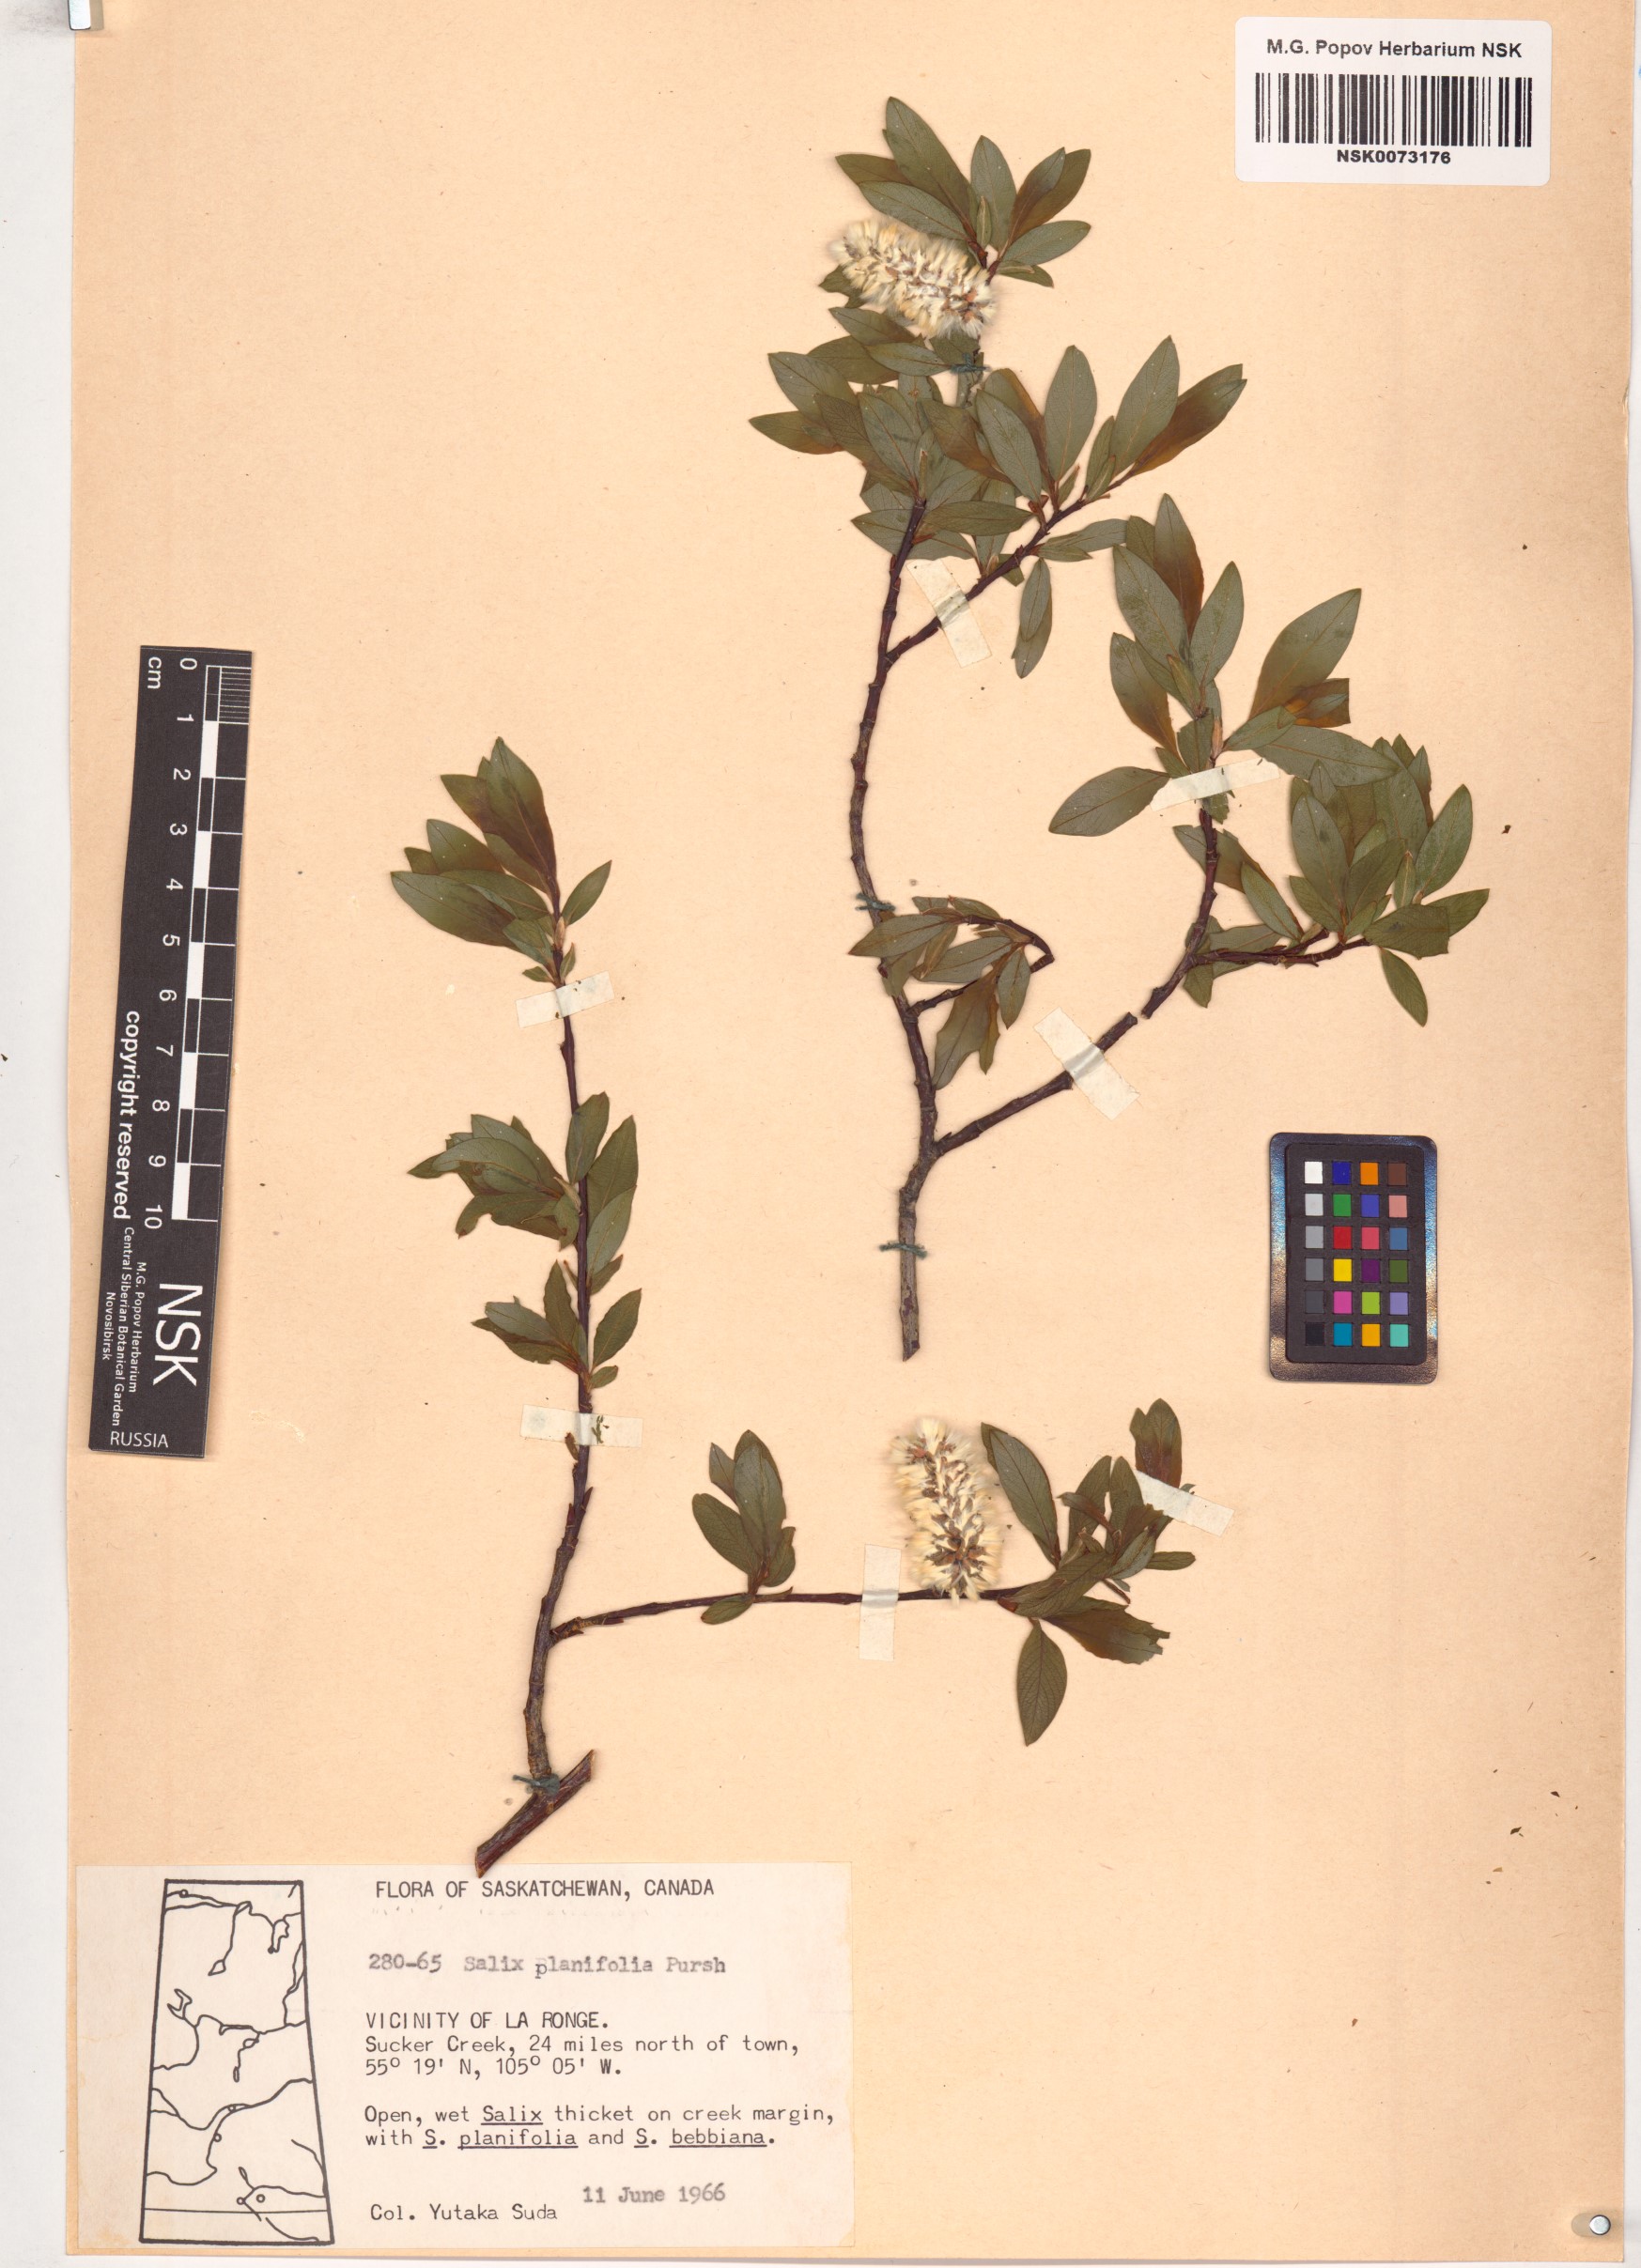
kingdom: Plantae
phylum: Tracheophyta
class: Magnoliopsida
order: Malpighiales
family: Salicaceae
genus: Salix
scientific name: Salix planifolia
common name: Mountain willow
